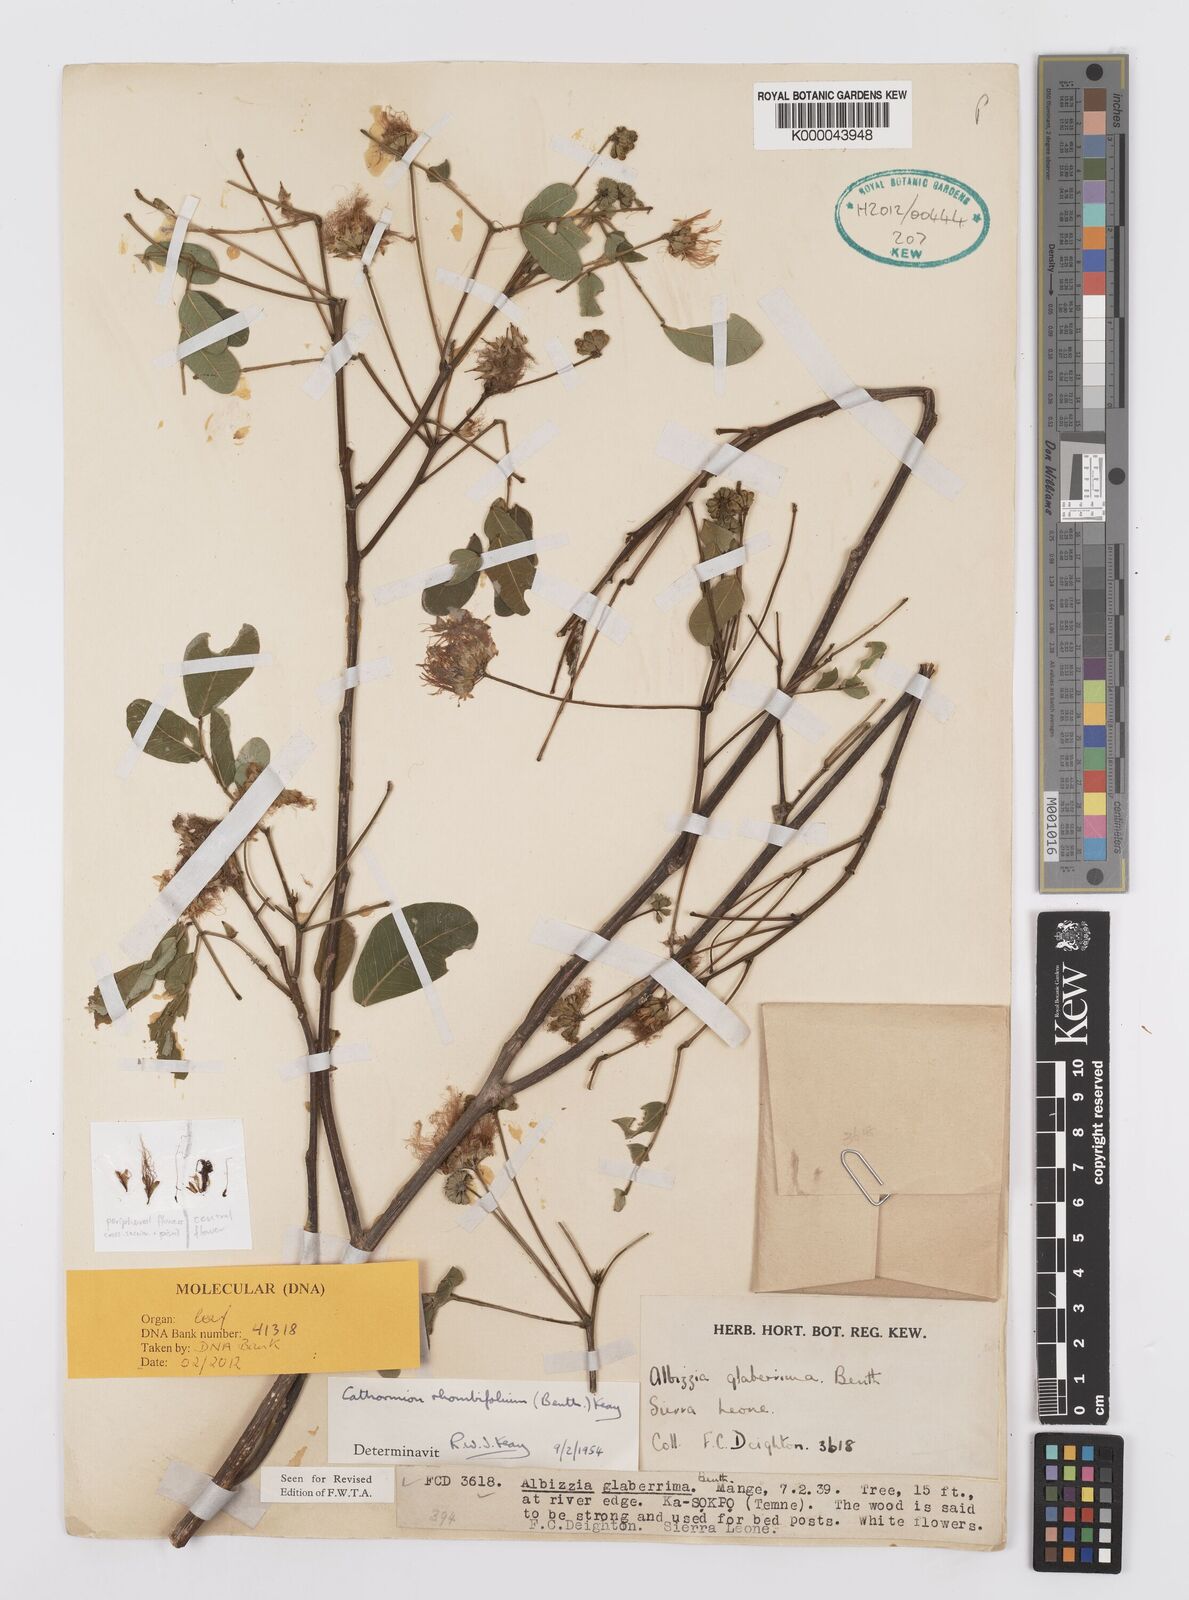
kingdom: Plantae
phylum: Tracheophyta
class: Magnoliopsida
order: Fabales
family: Fabaceae
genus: Albizia
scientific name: Albizia rhombifolia
